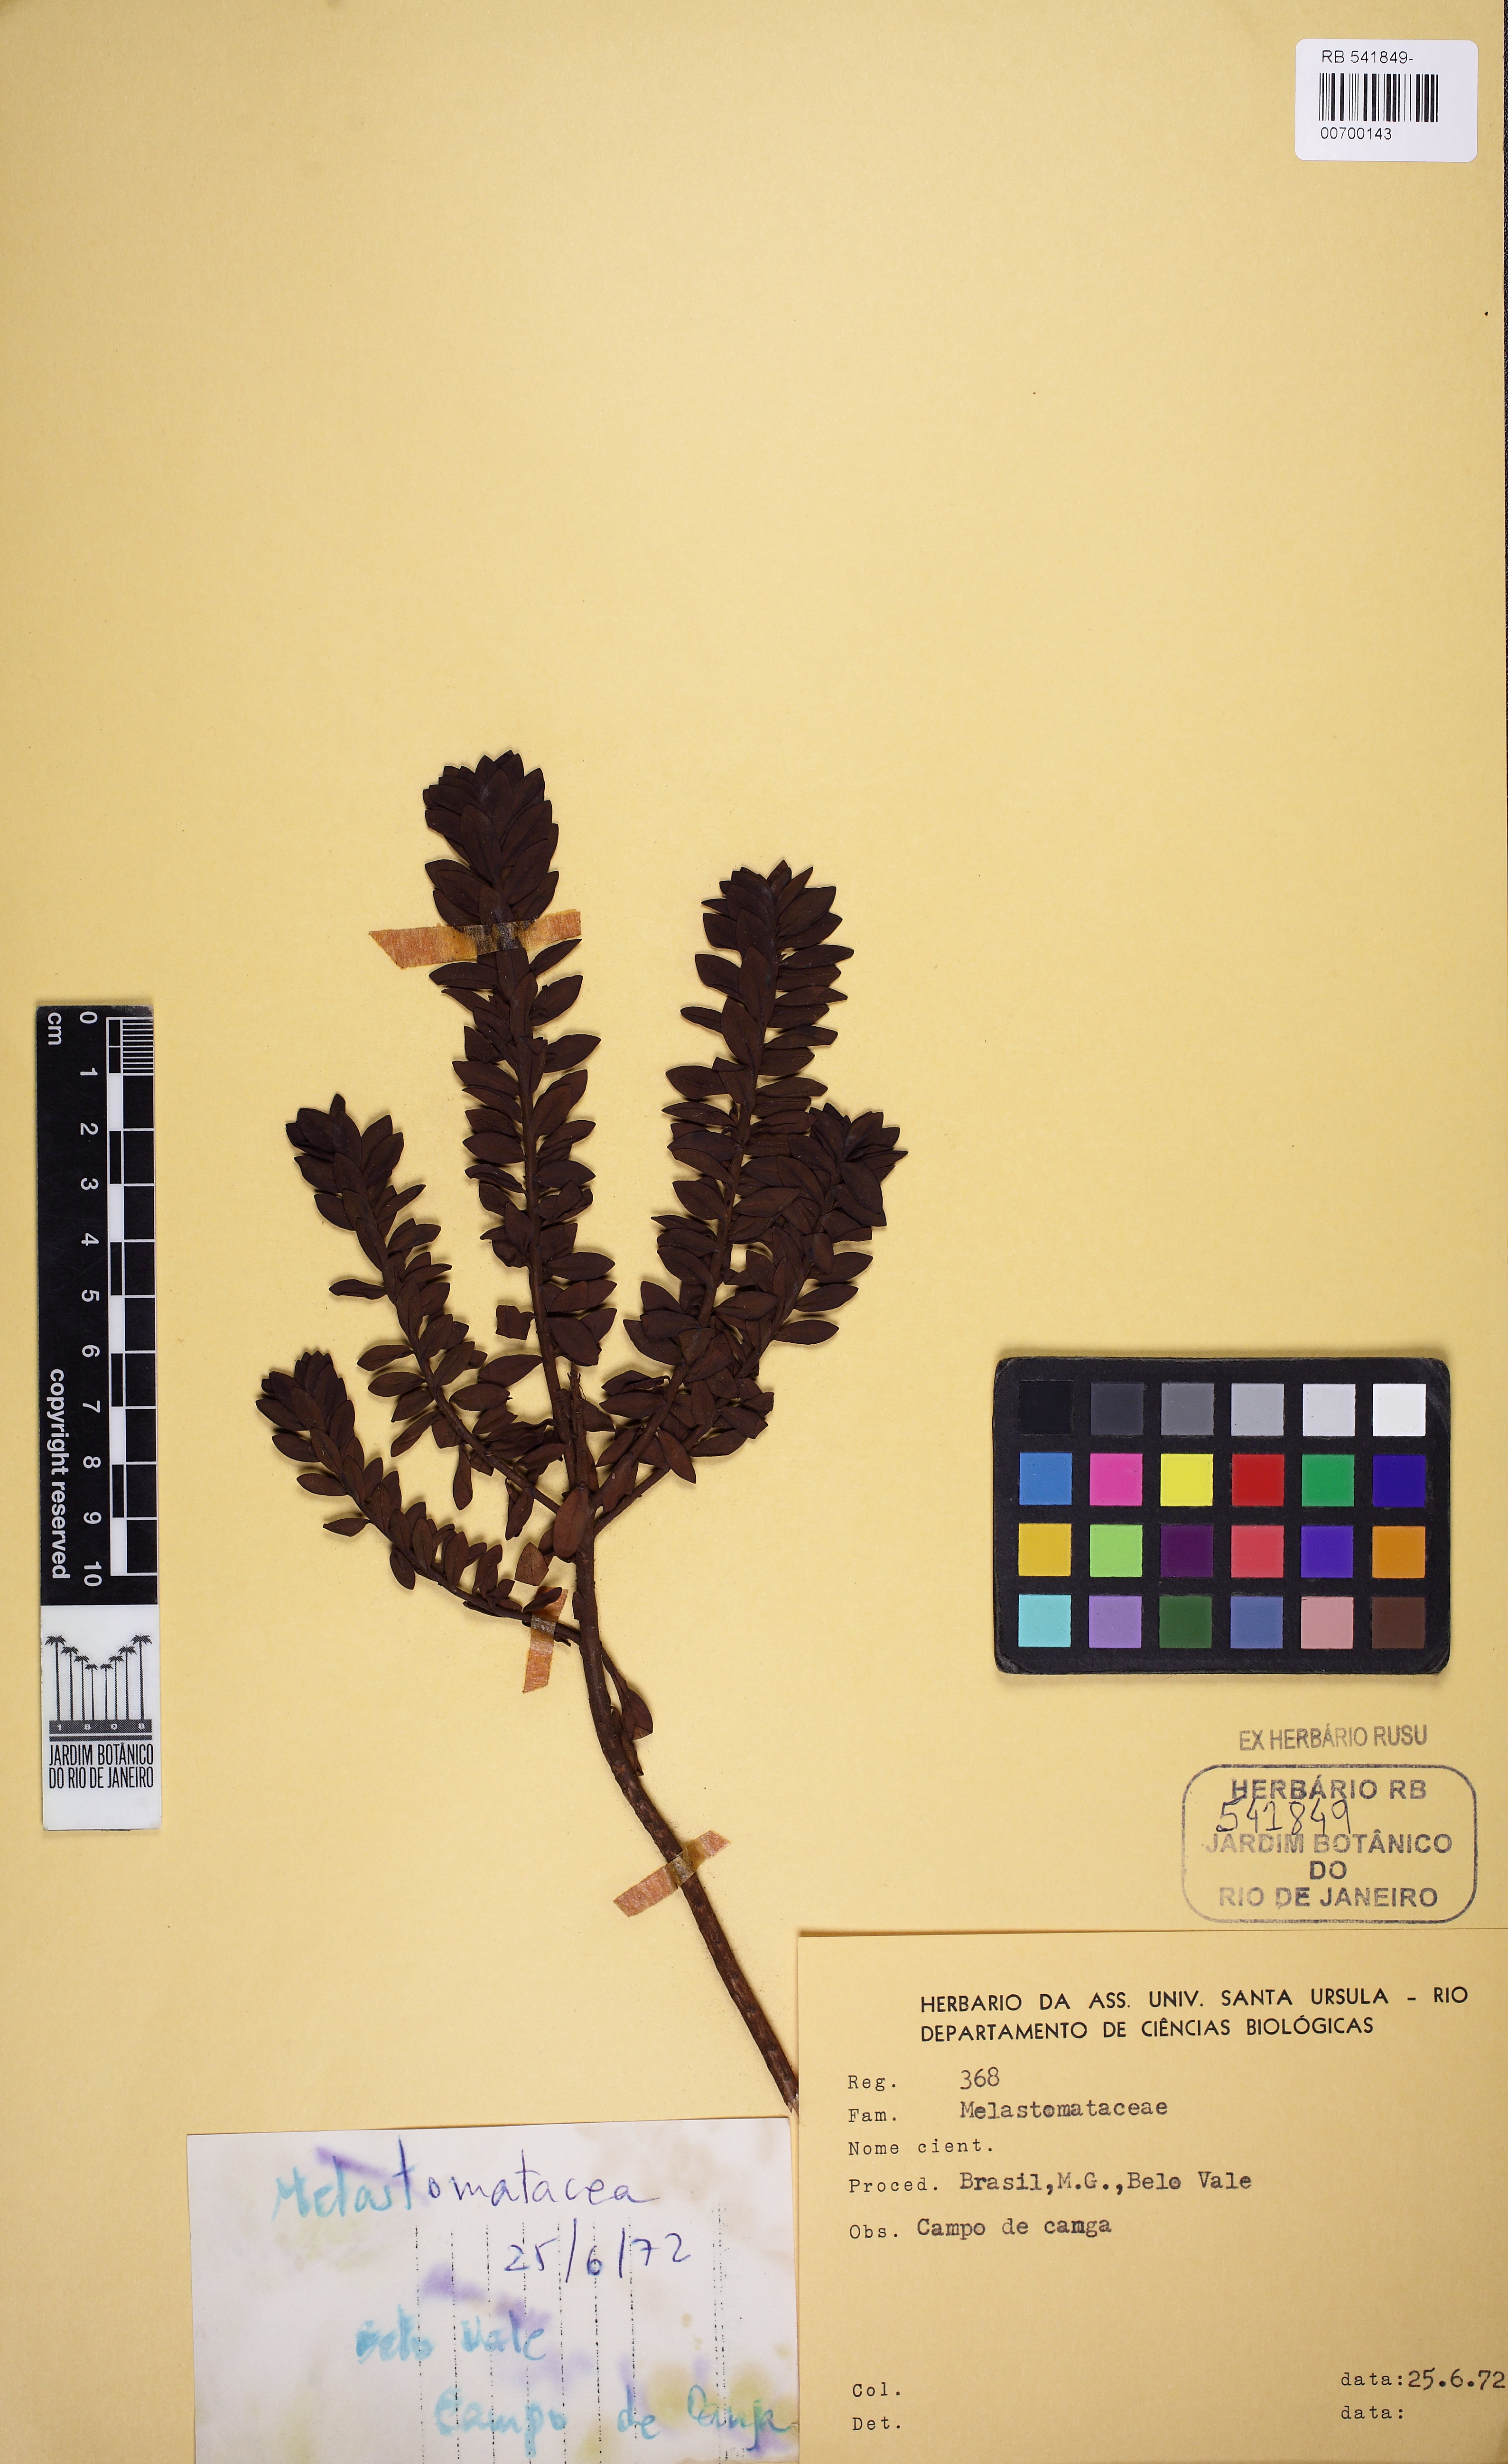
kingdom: Plantae
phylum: Tracheophyta
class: Magnoliopsida
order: Myrtales
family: Melastomataceae
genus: Microlicia
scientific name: Microlicia
